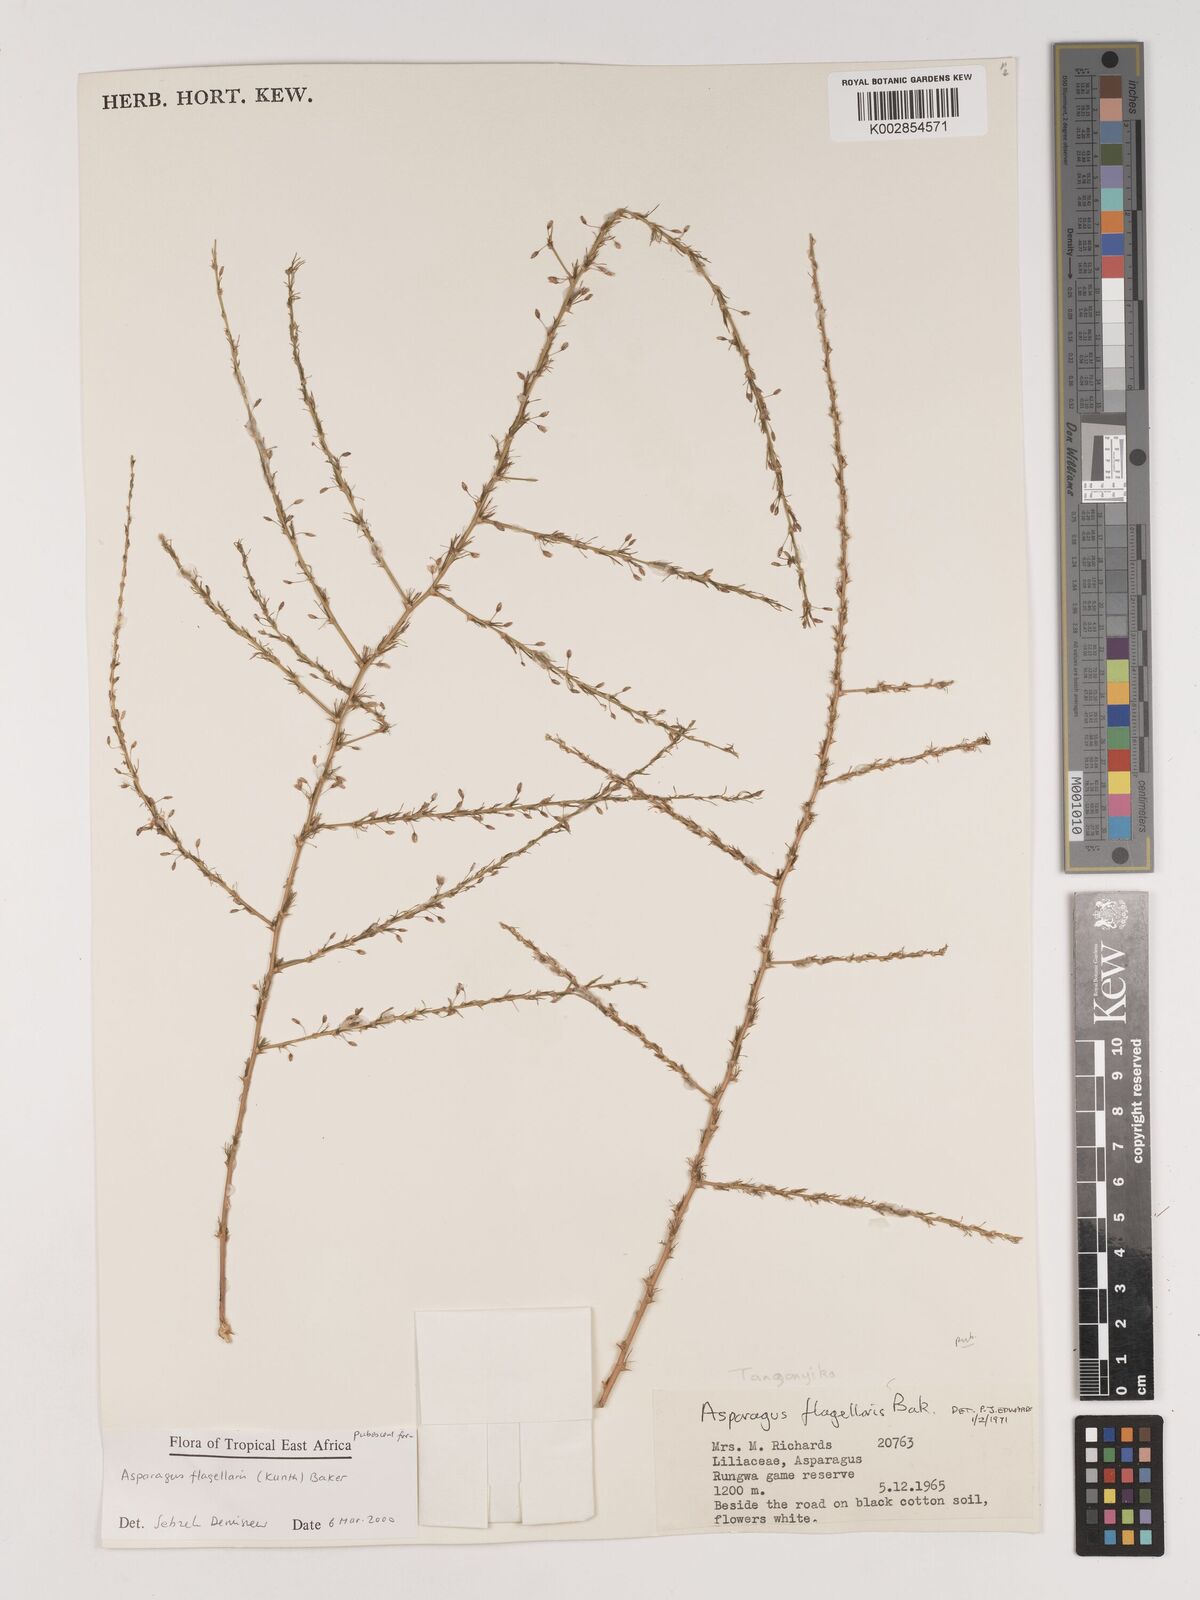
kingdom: Plantae
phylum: Tracheophyta
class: Liliopsida
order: Asparagales
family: Asparagaceae
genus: Asparagus
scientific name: Asparagus flagellaris
